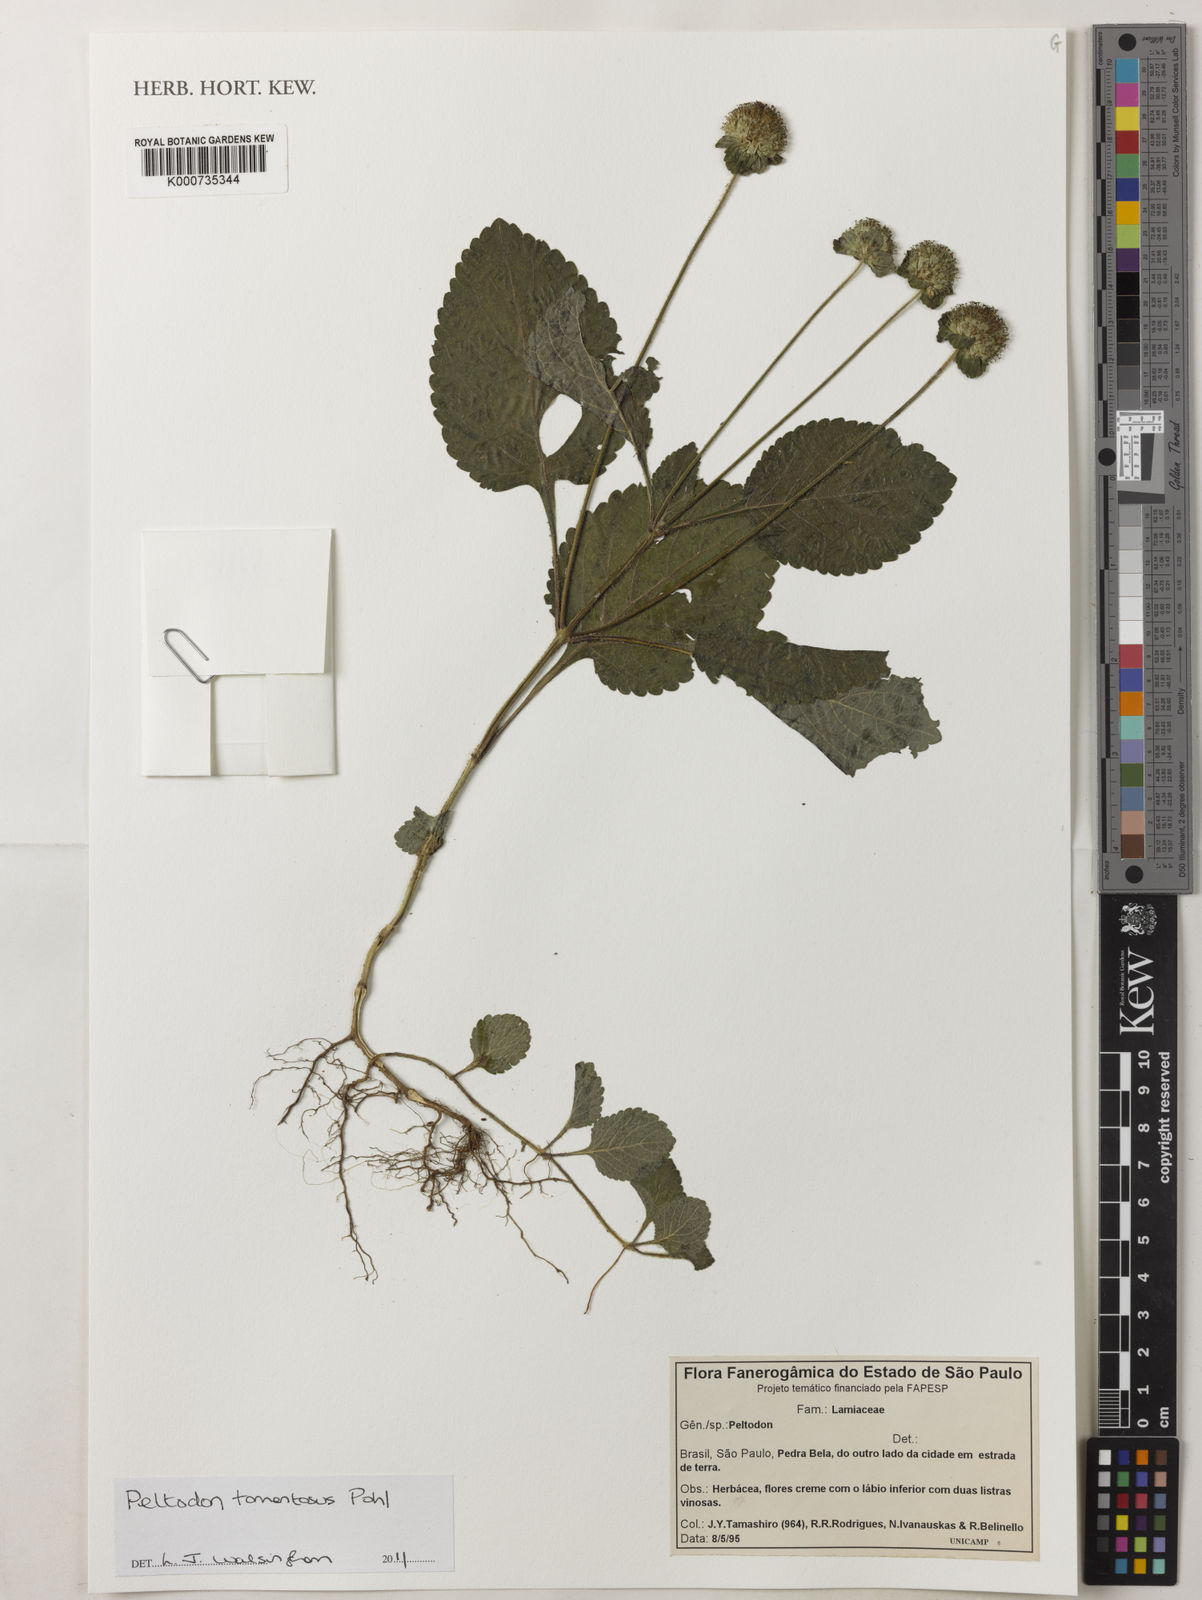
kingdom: Plantae
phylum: Tracheophyta
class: Magnoliopsida
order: Lamiales
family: Lamiaceae
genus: Hyptis
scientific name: Hyptis campestris
